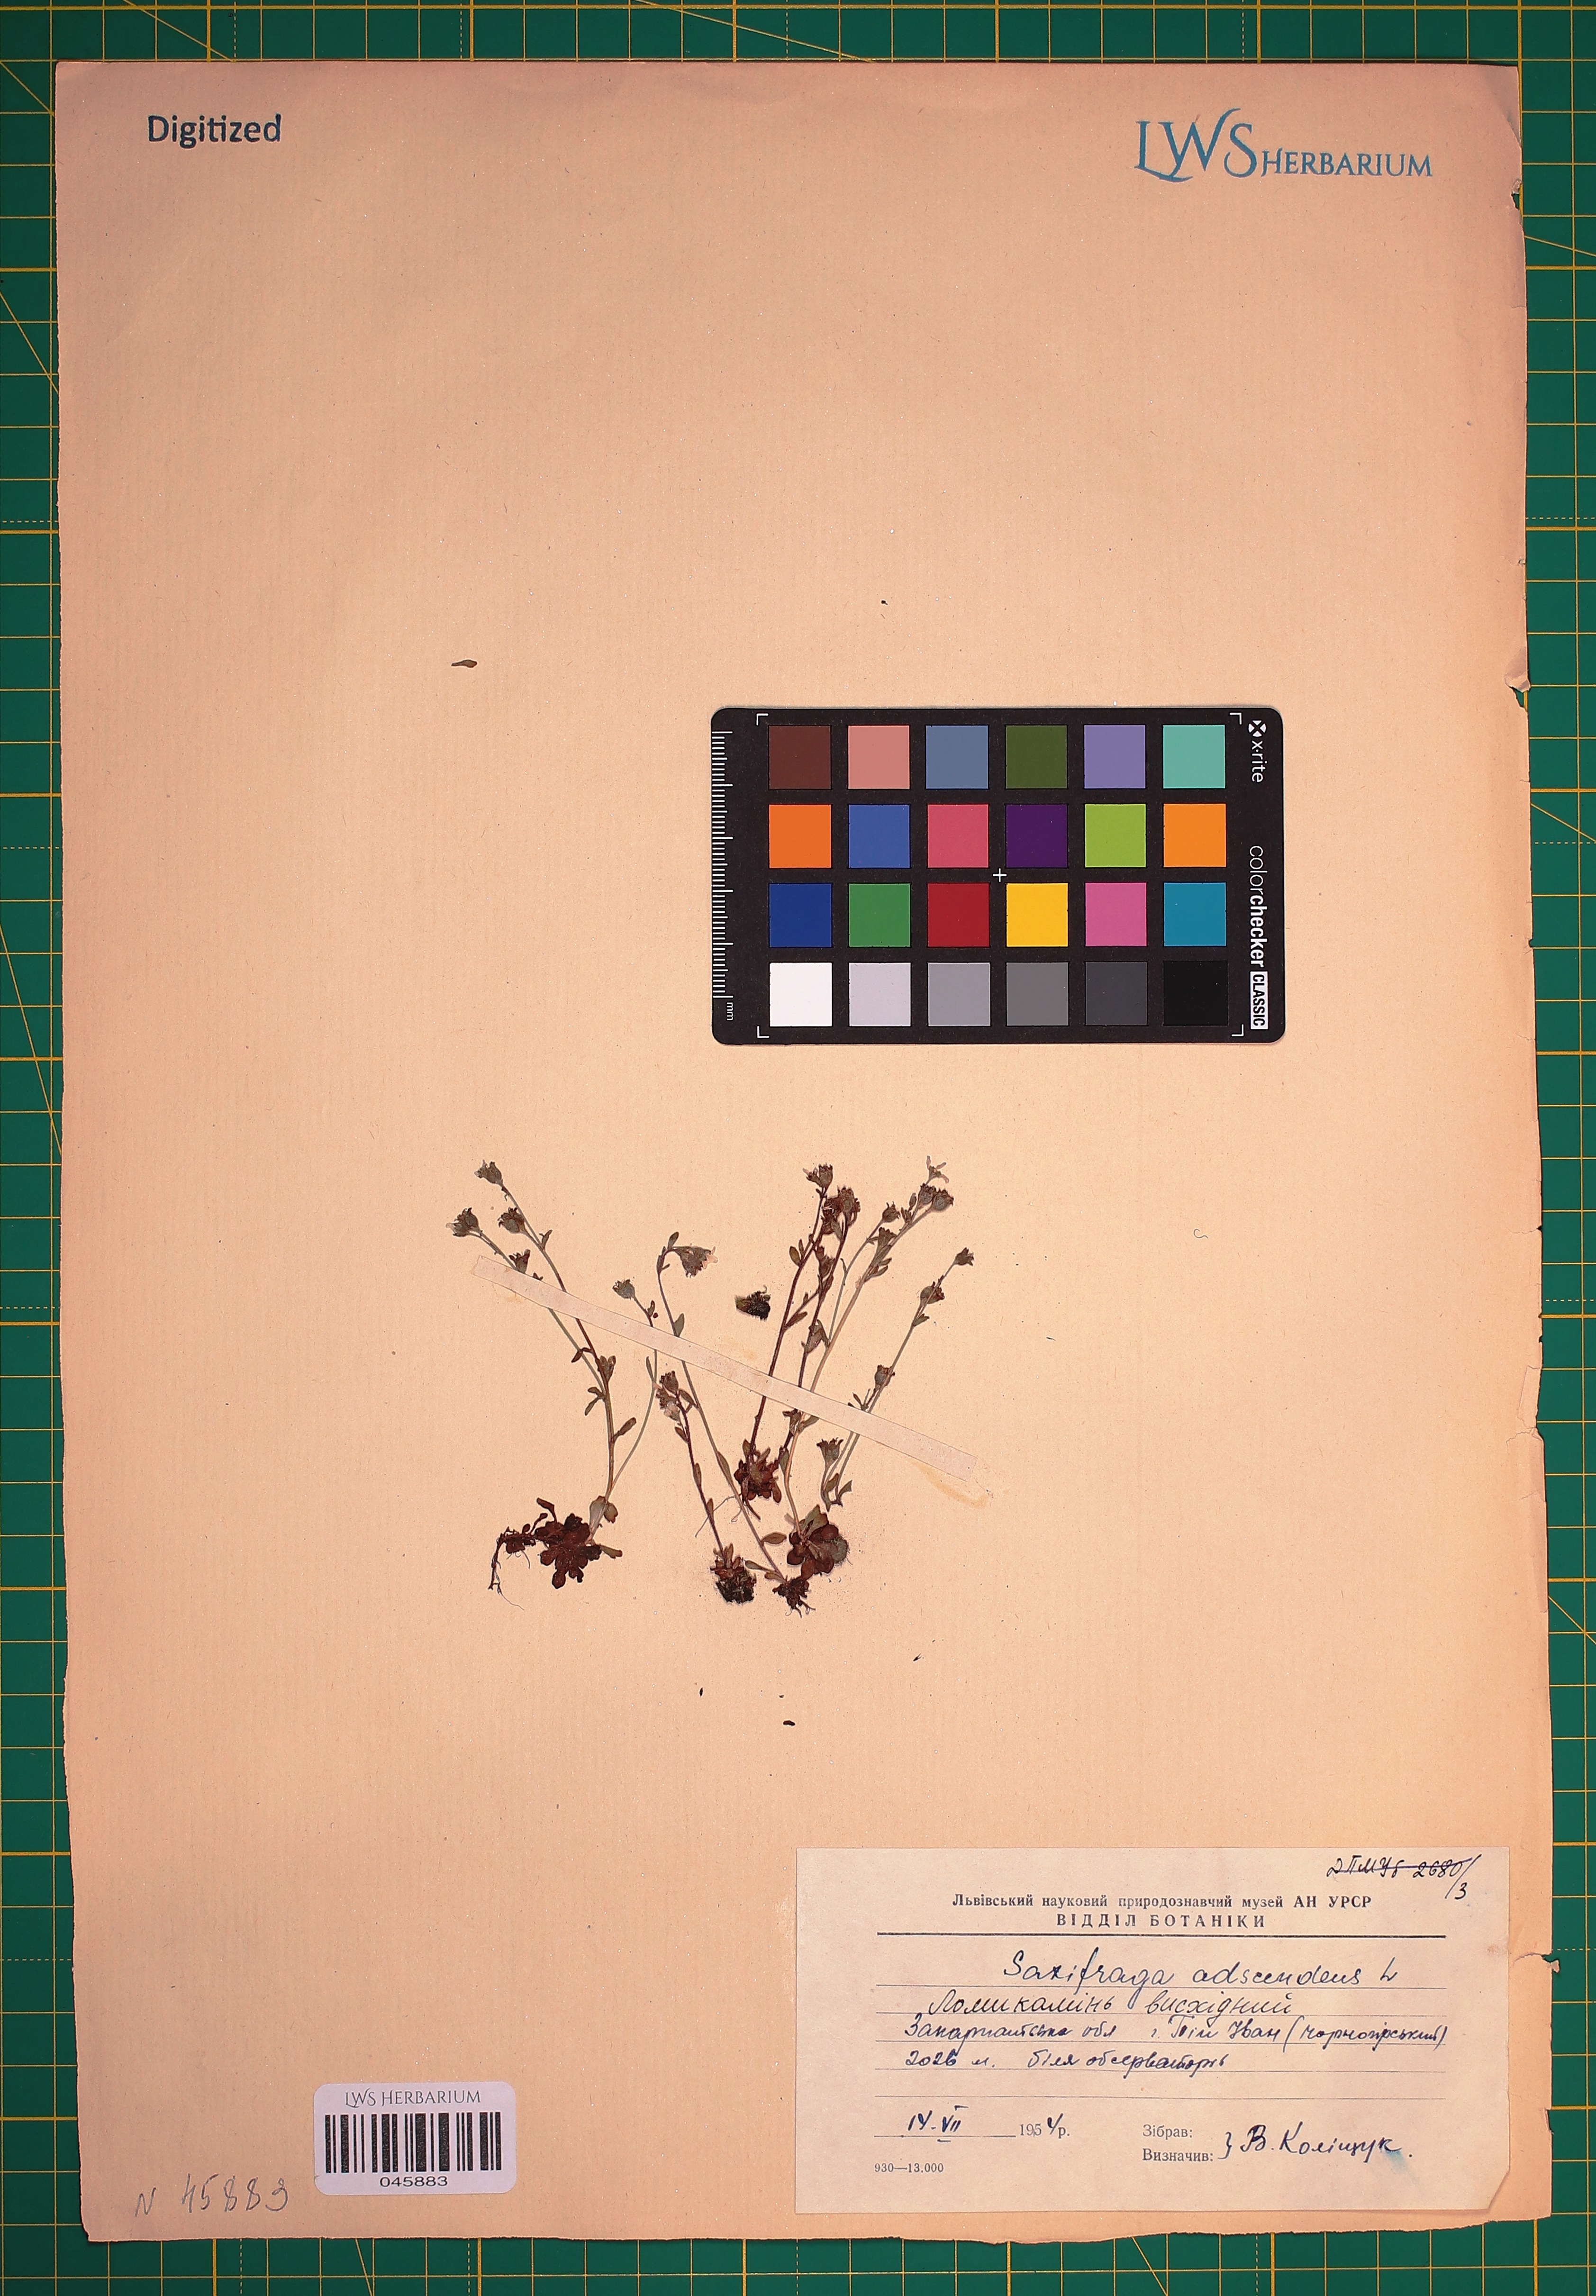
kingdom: Plantae
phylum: Tracheophyta
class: Magnoliopsida
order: Saxifragales
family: Saxifragaceae
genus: Saxifraga
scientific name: Saxifraga adscendens
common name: Ascending saxifrage
